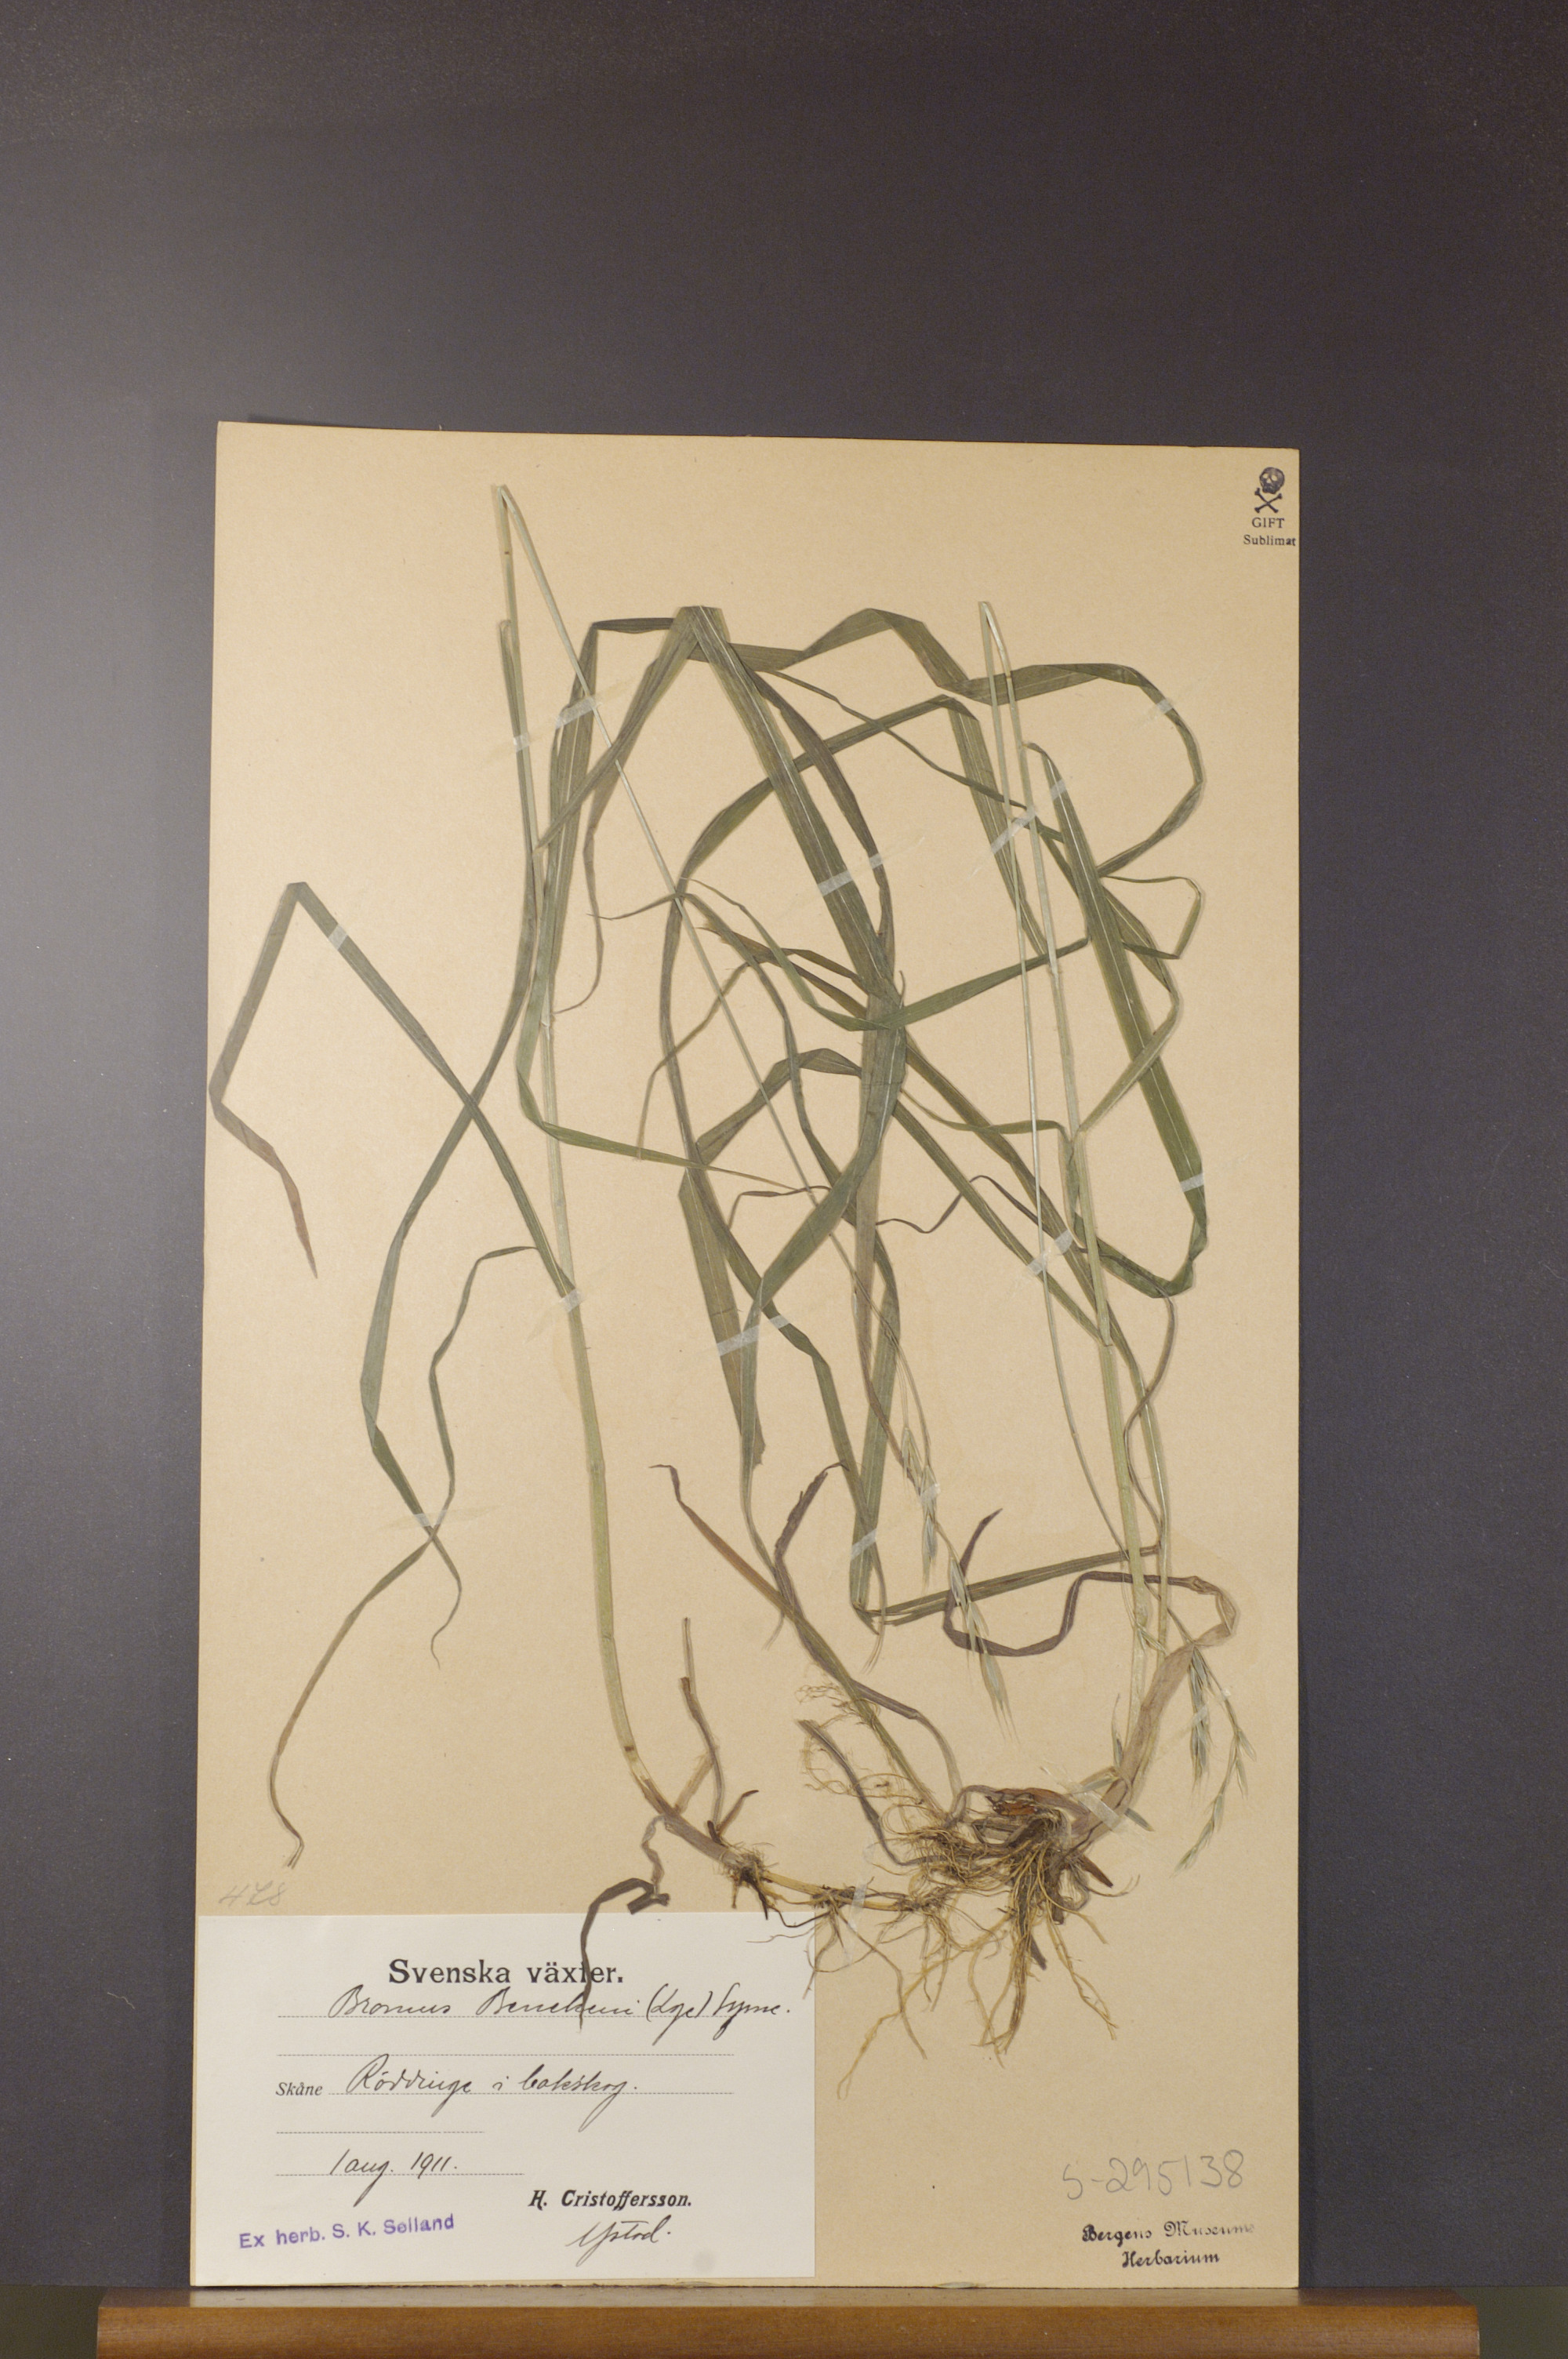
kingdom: Plantae
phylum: Tracheophyta
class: Liliopsida
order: Poales
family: Poaceae
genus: Bromus
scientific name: Bromus benekenii
